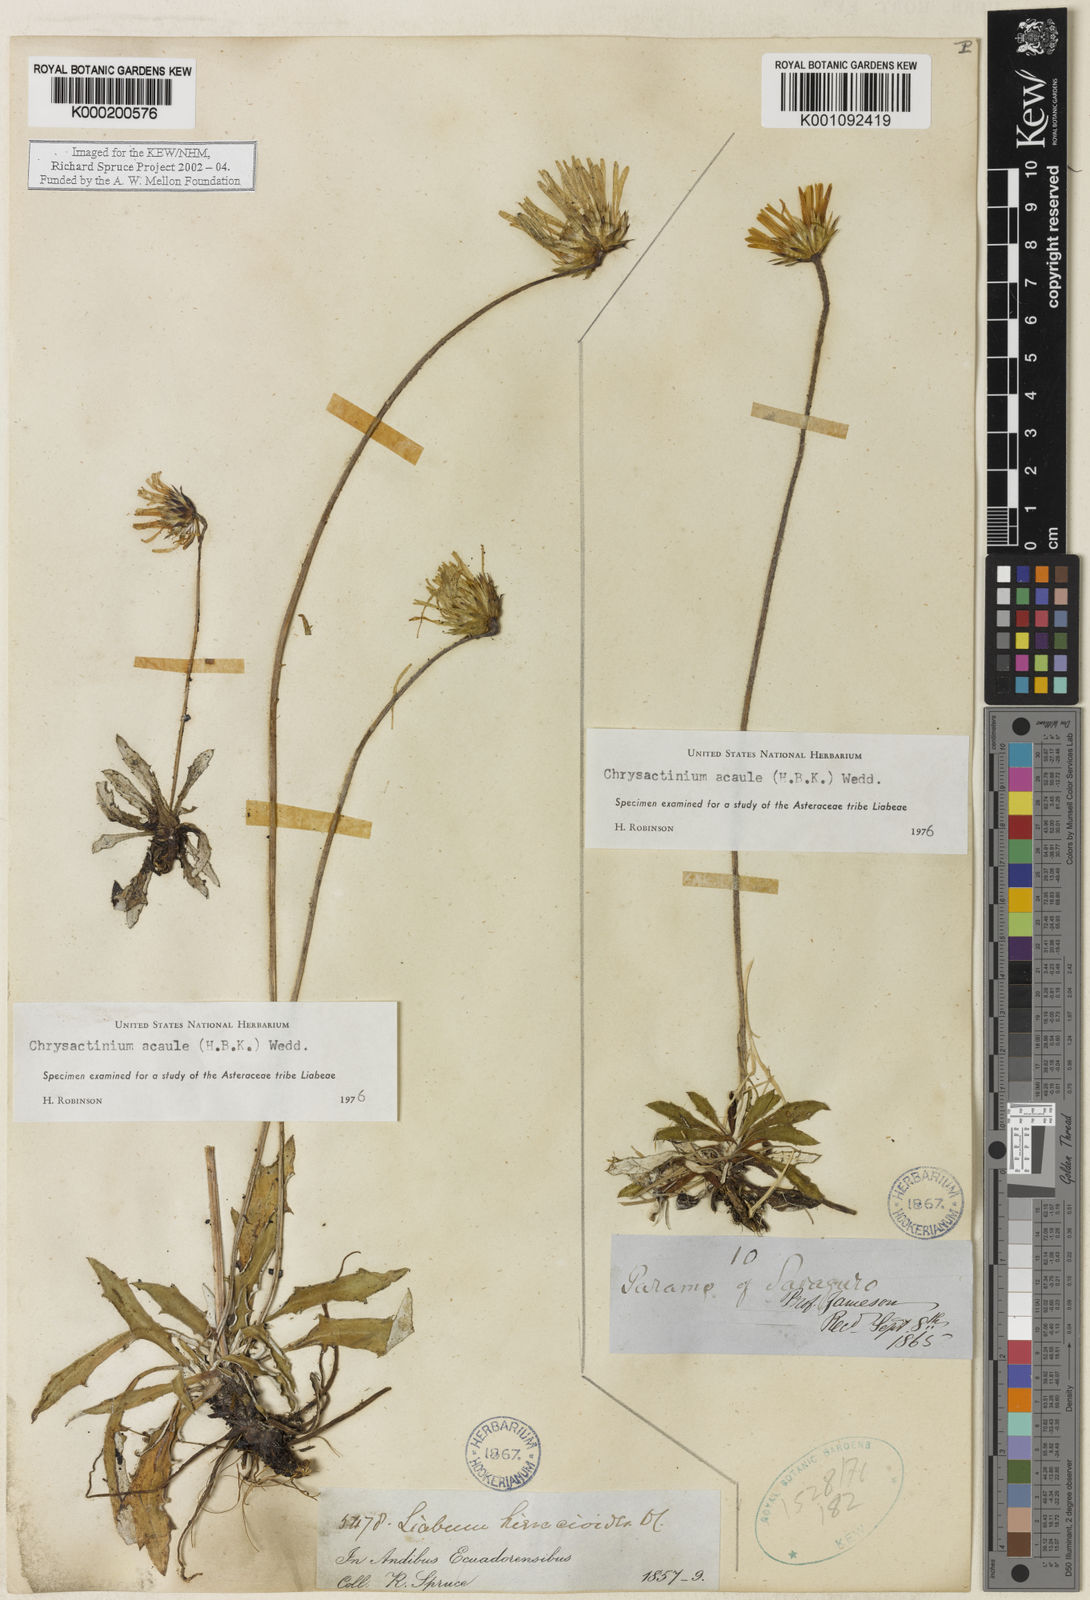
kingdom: Plantae
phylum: Tracheophyta
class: Magnoliopsida
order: Asterales
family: Asteraceae
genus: Chrysactinium
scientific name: Chrysactinium acaule
